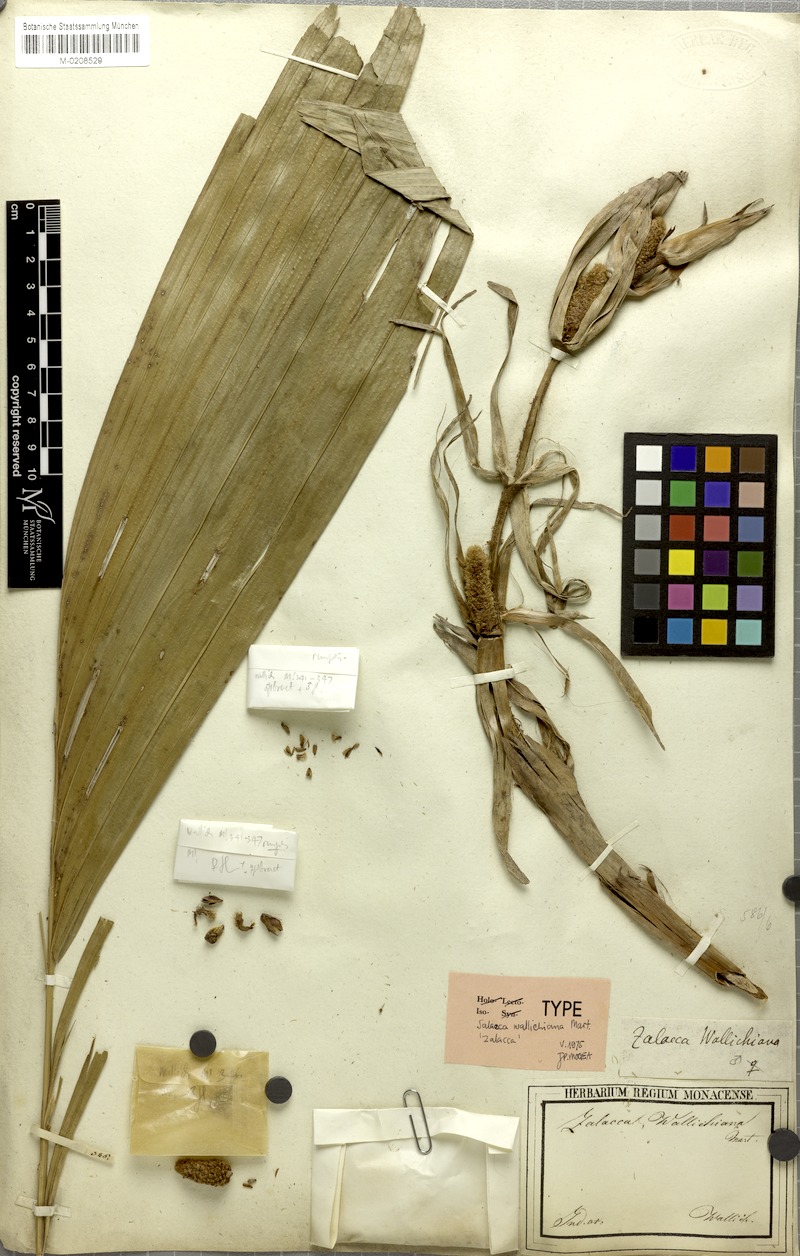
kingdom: Plantae
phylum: Tracheophyta
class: Liliopsida
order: Arecales
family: Arecaceae
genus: Salacca
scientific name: Salacca wallichiana
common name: Rakum palm
